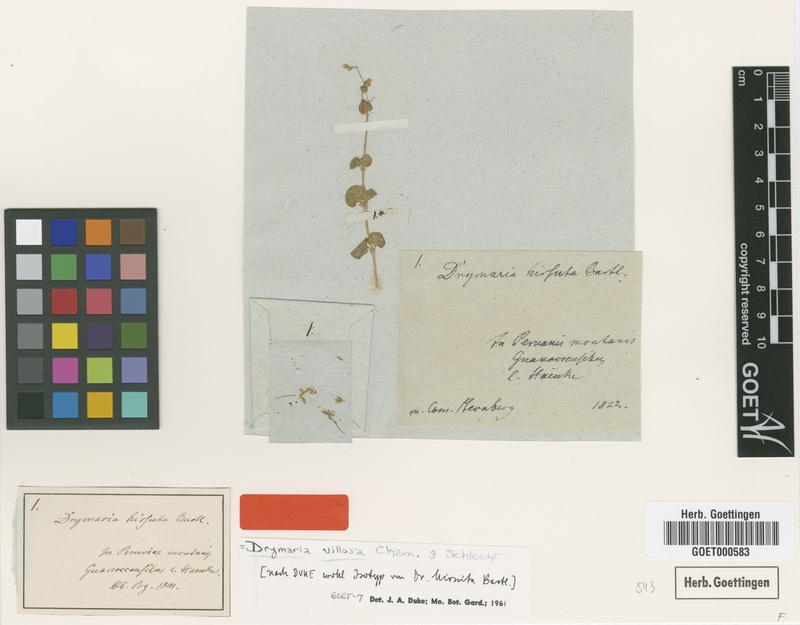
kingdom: Plantae
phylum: Tracheophyta
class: Magnoliopsida
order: Caryophyllales
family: Caryophyllaceae
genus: Drymaria
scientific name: Drymaria villosa
